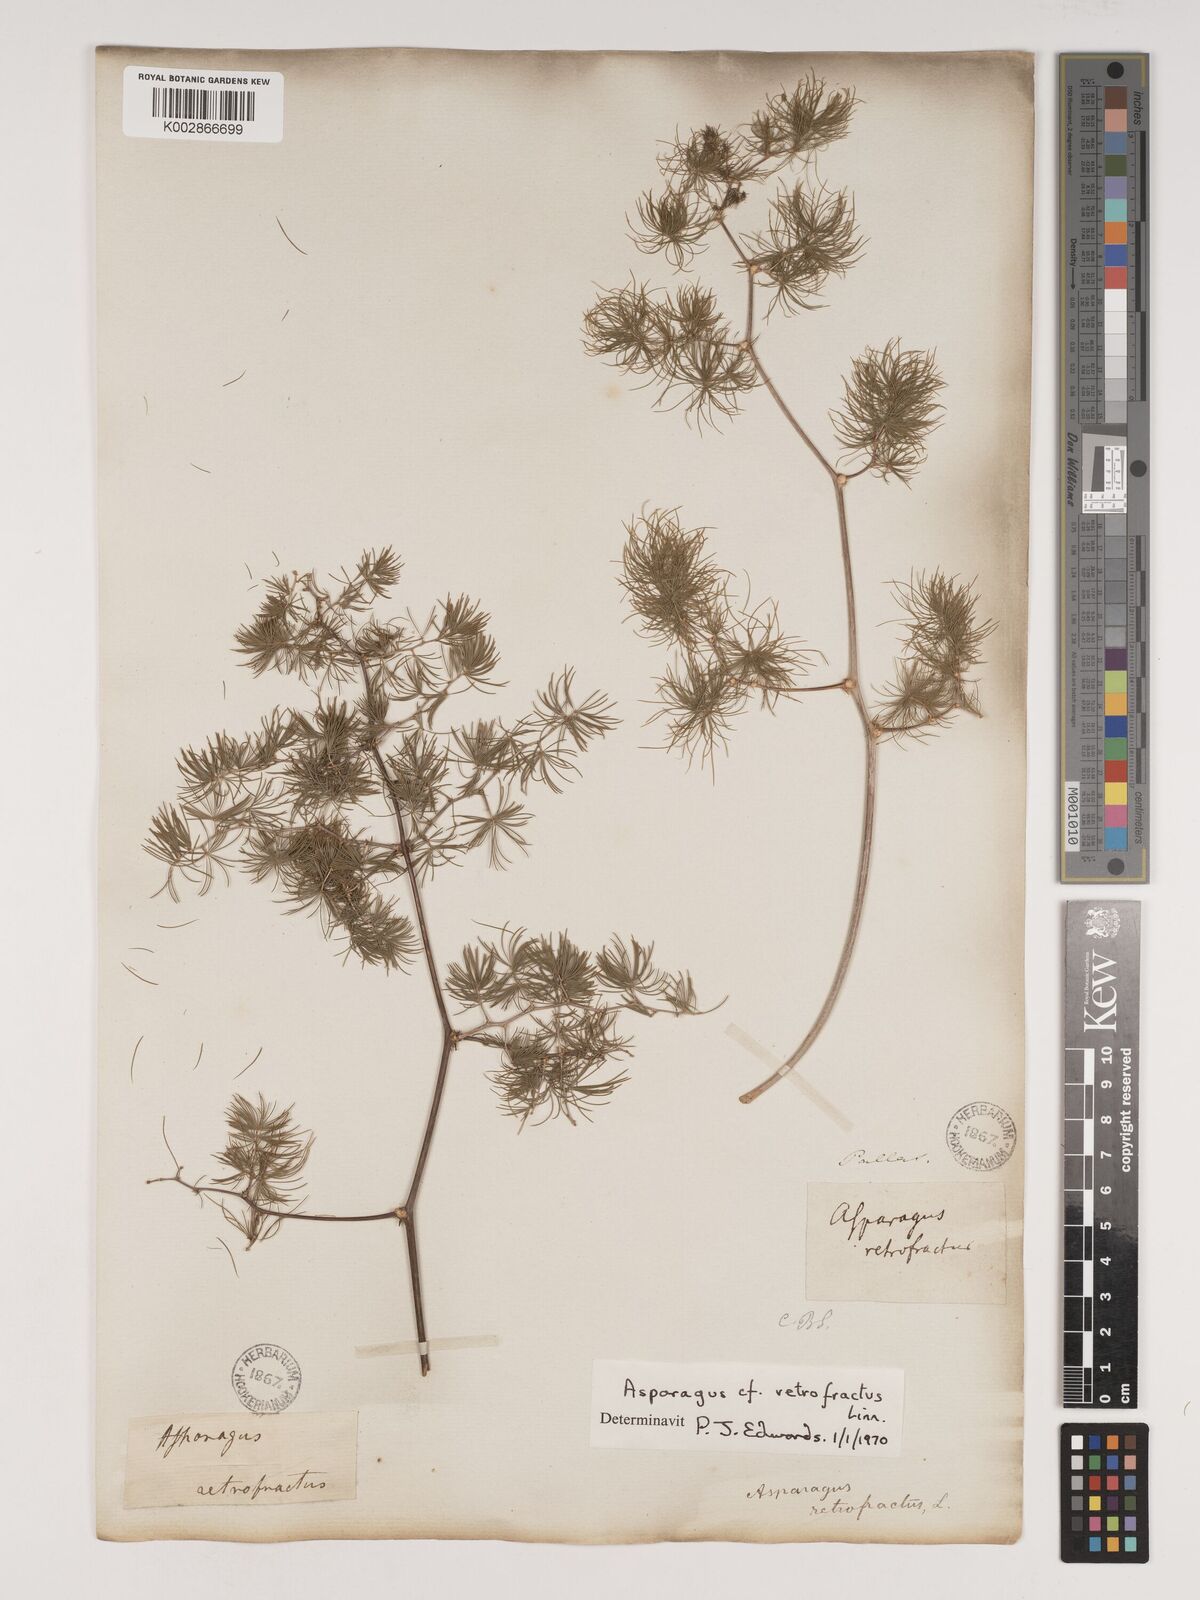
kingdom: Plantae
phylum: Tracheophyta
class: Liliopsida
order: Asparagales
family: Asparagaceae
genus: Asparagus
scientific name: Asparagus retrofractus
